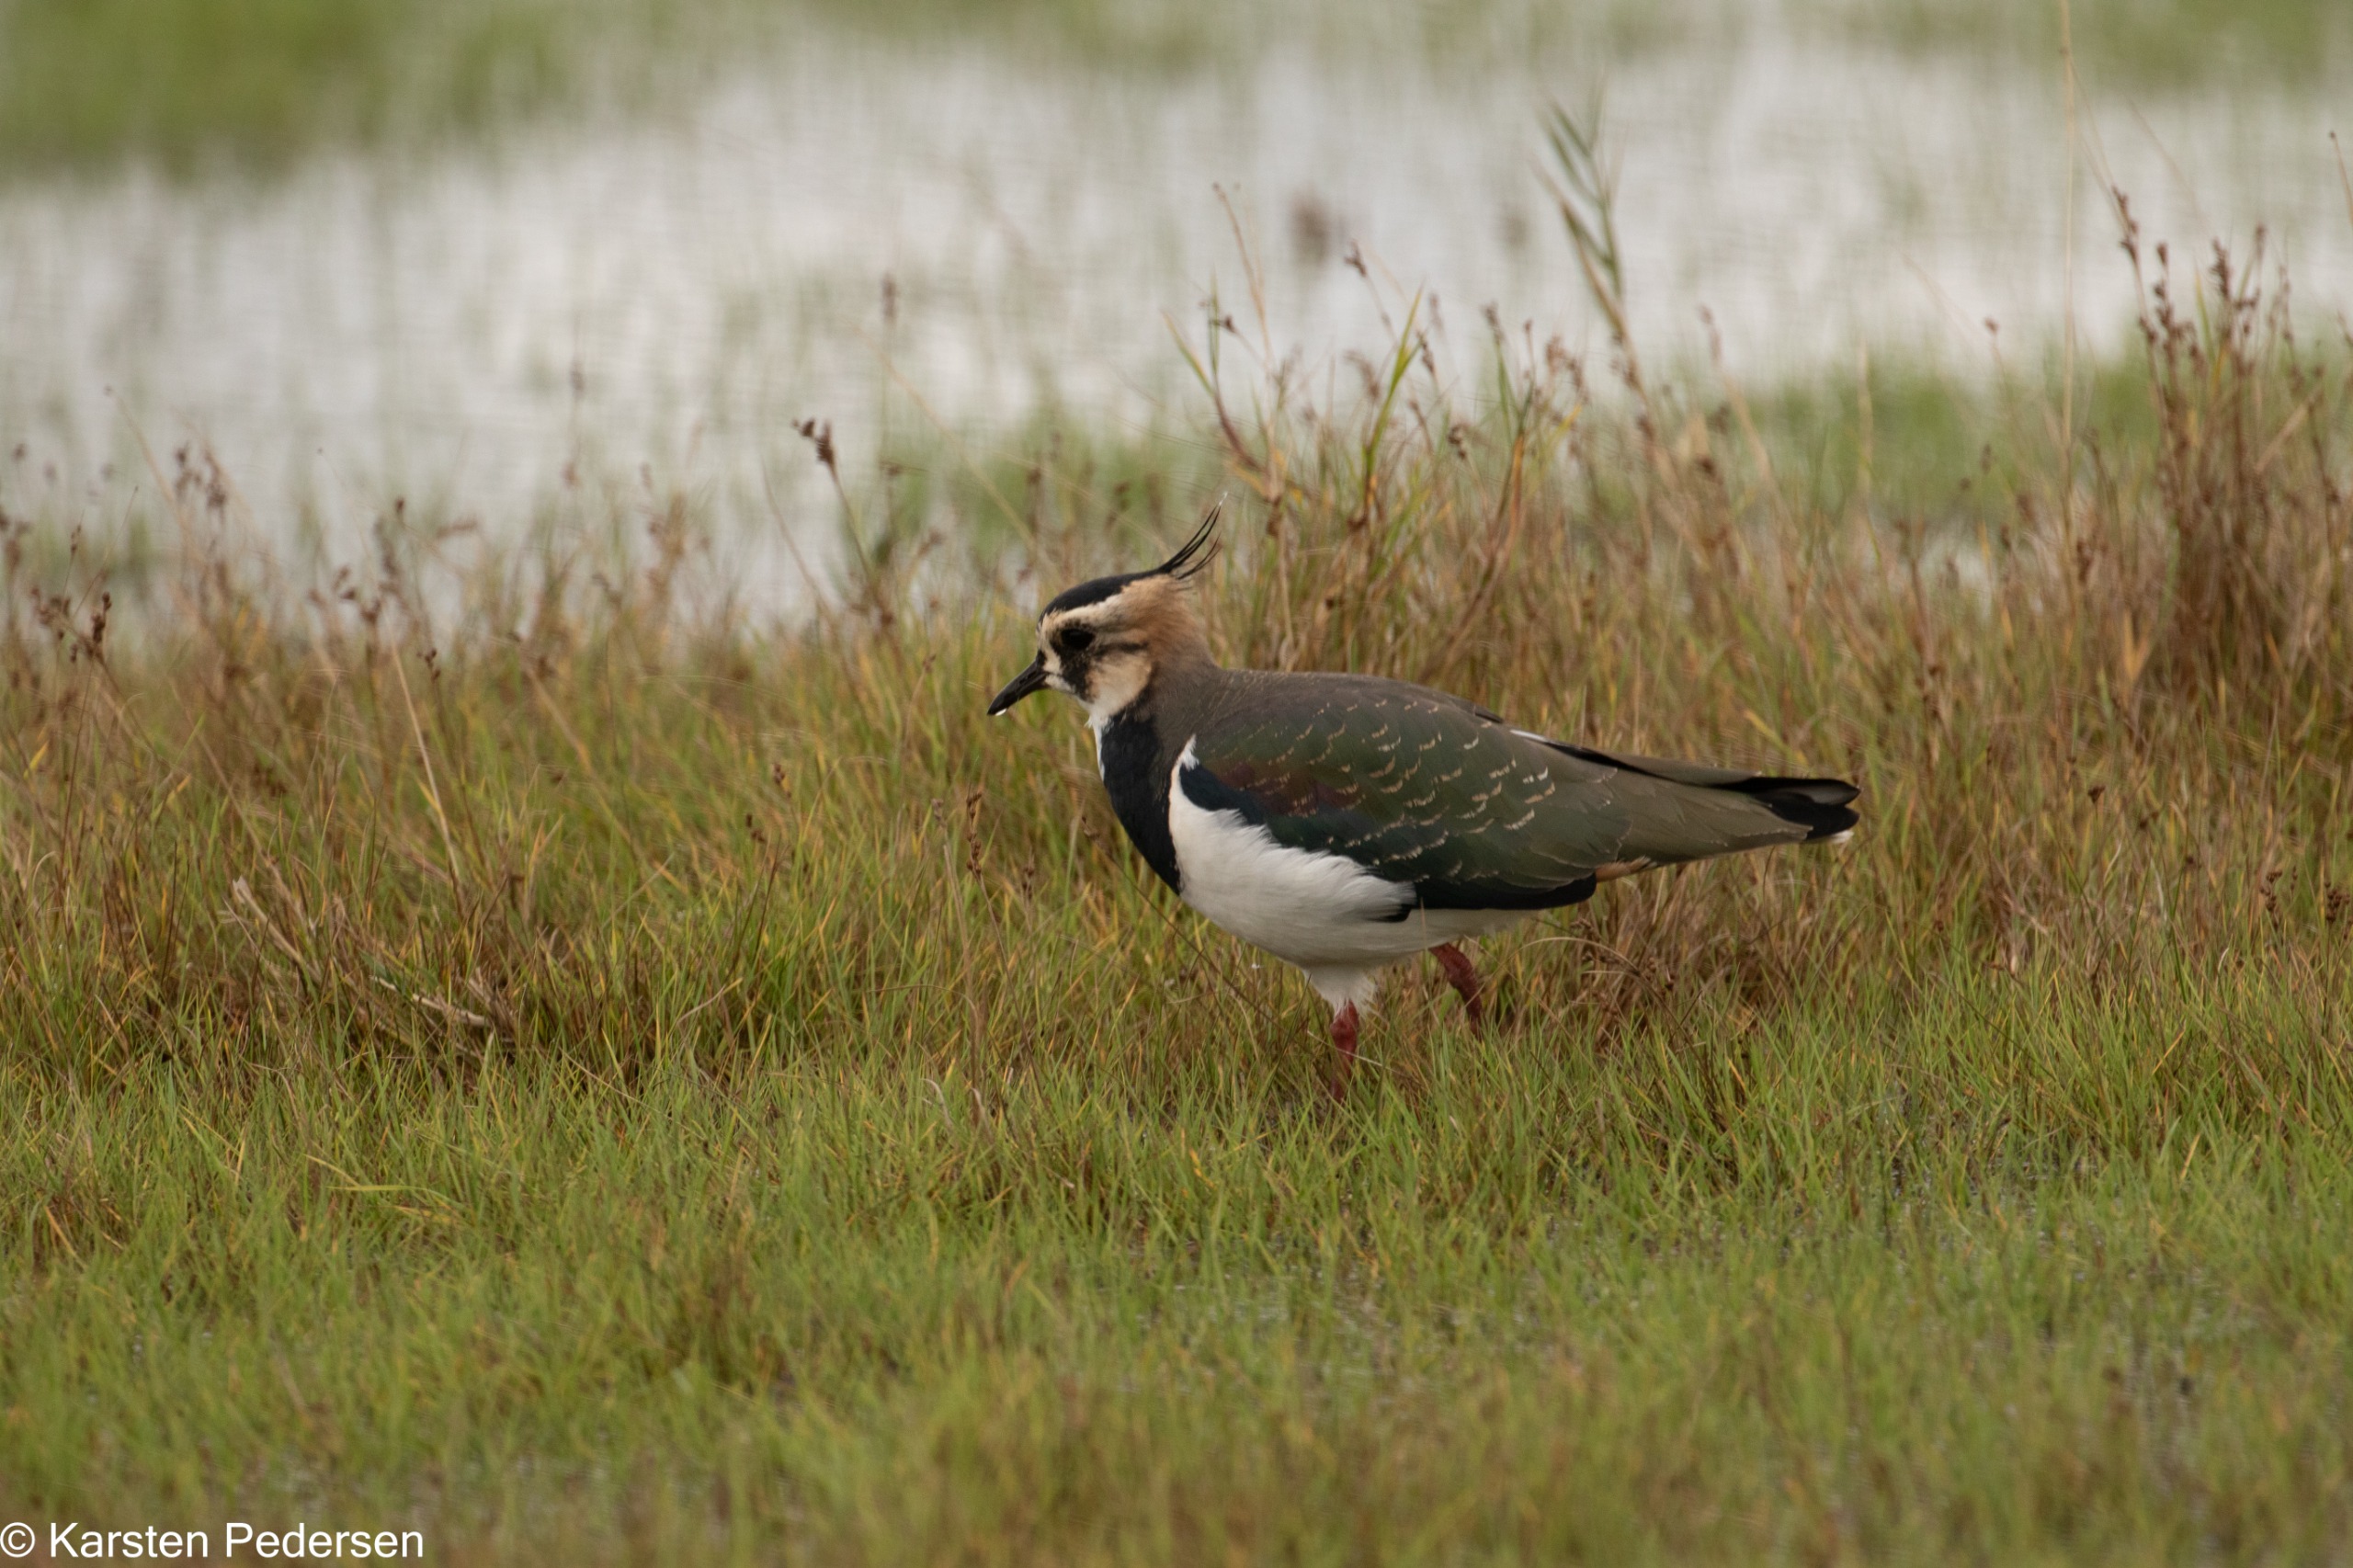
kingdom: Animalia
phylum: Chordata
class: Aves
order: Charadriiformes
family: Charadriidae
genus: Vanellus
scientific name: Vanellus vanellus
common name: Vibe
